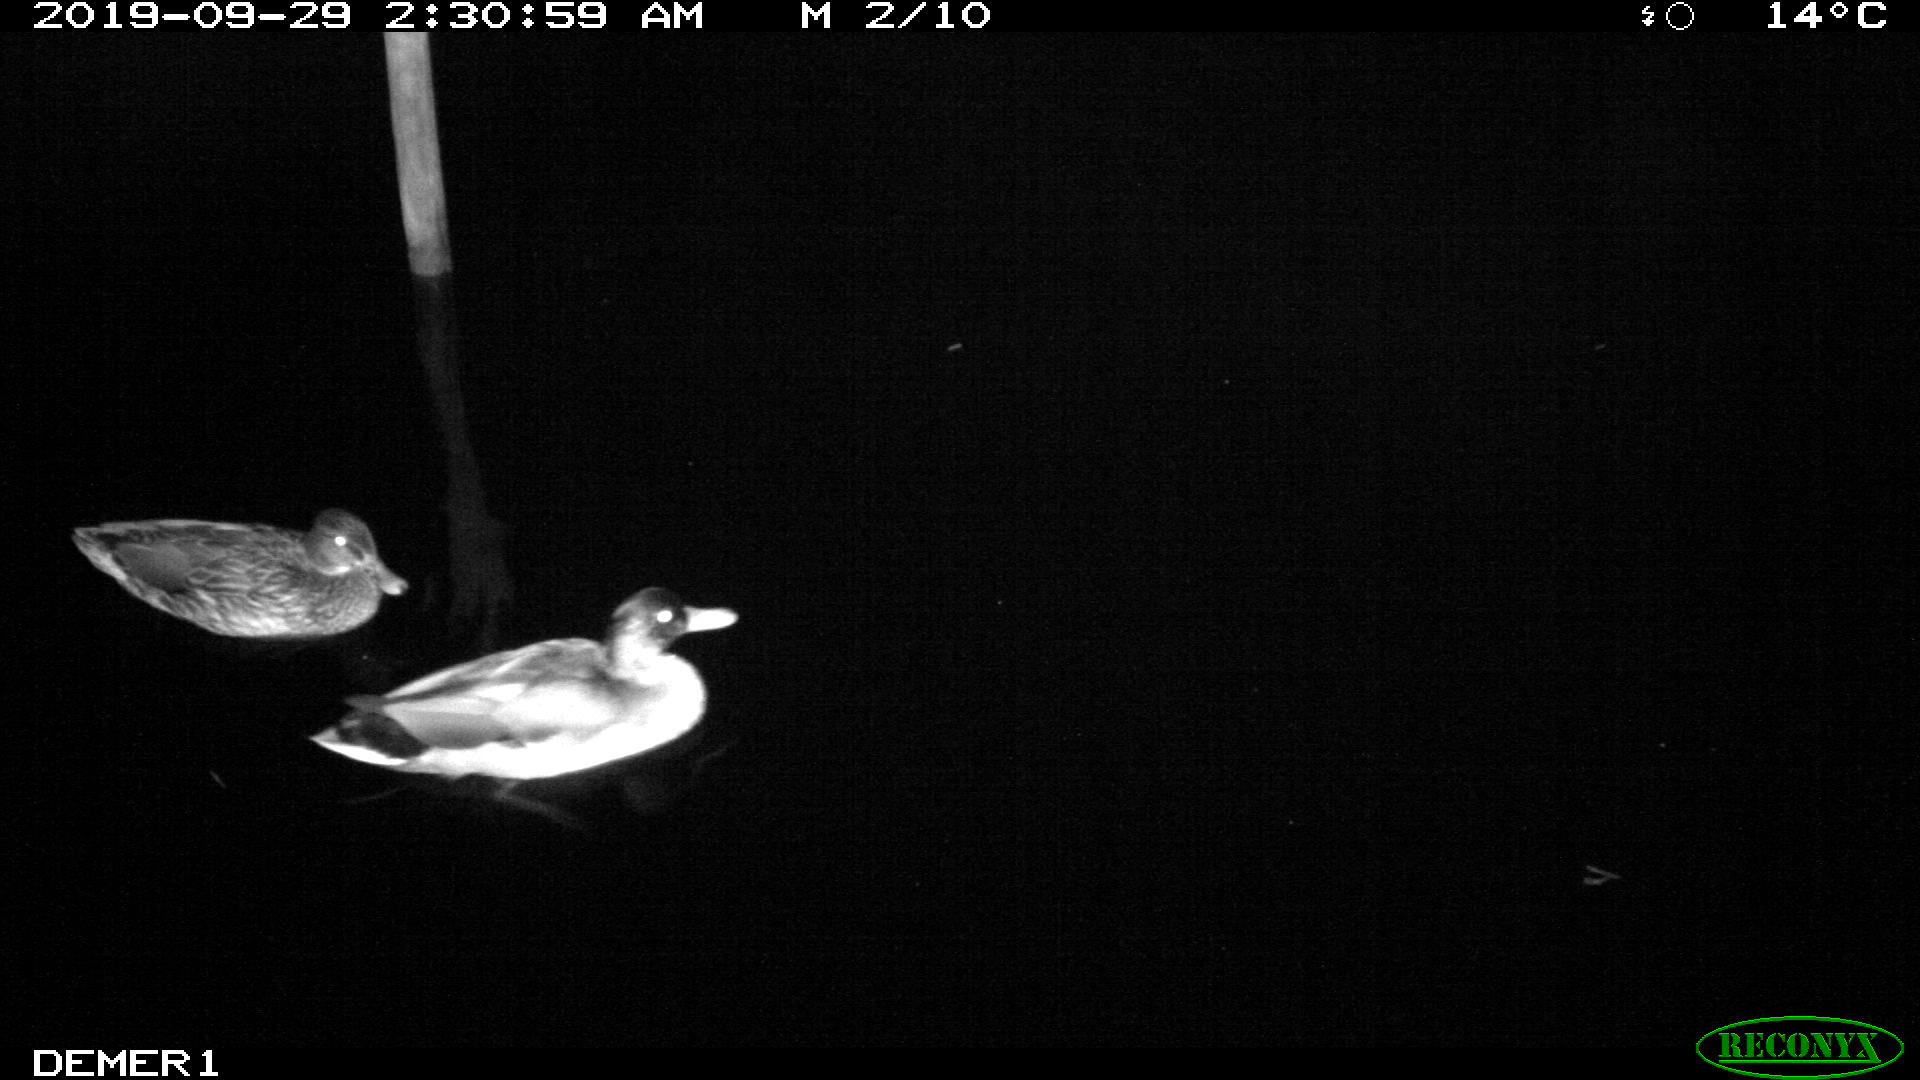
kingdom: Animalia
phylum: Chordata
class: Aves
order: Anseriformes
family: Anatidae
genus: Anas
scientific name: Anas platyrhynchos
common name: Mallard
